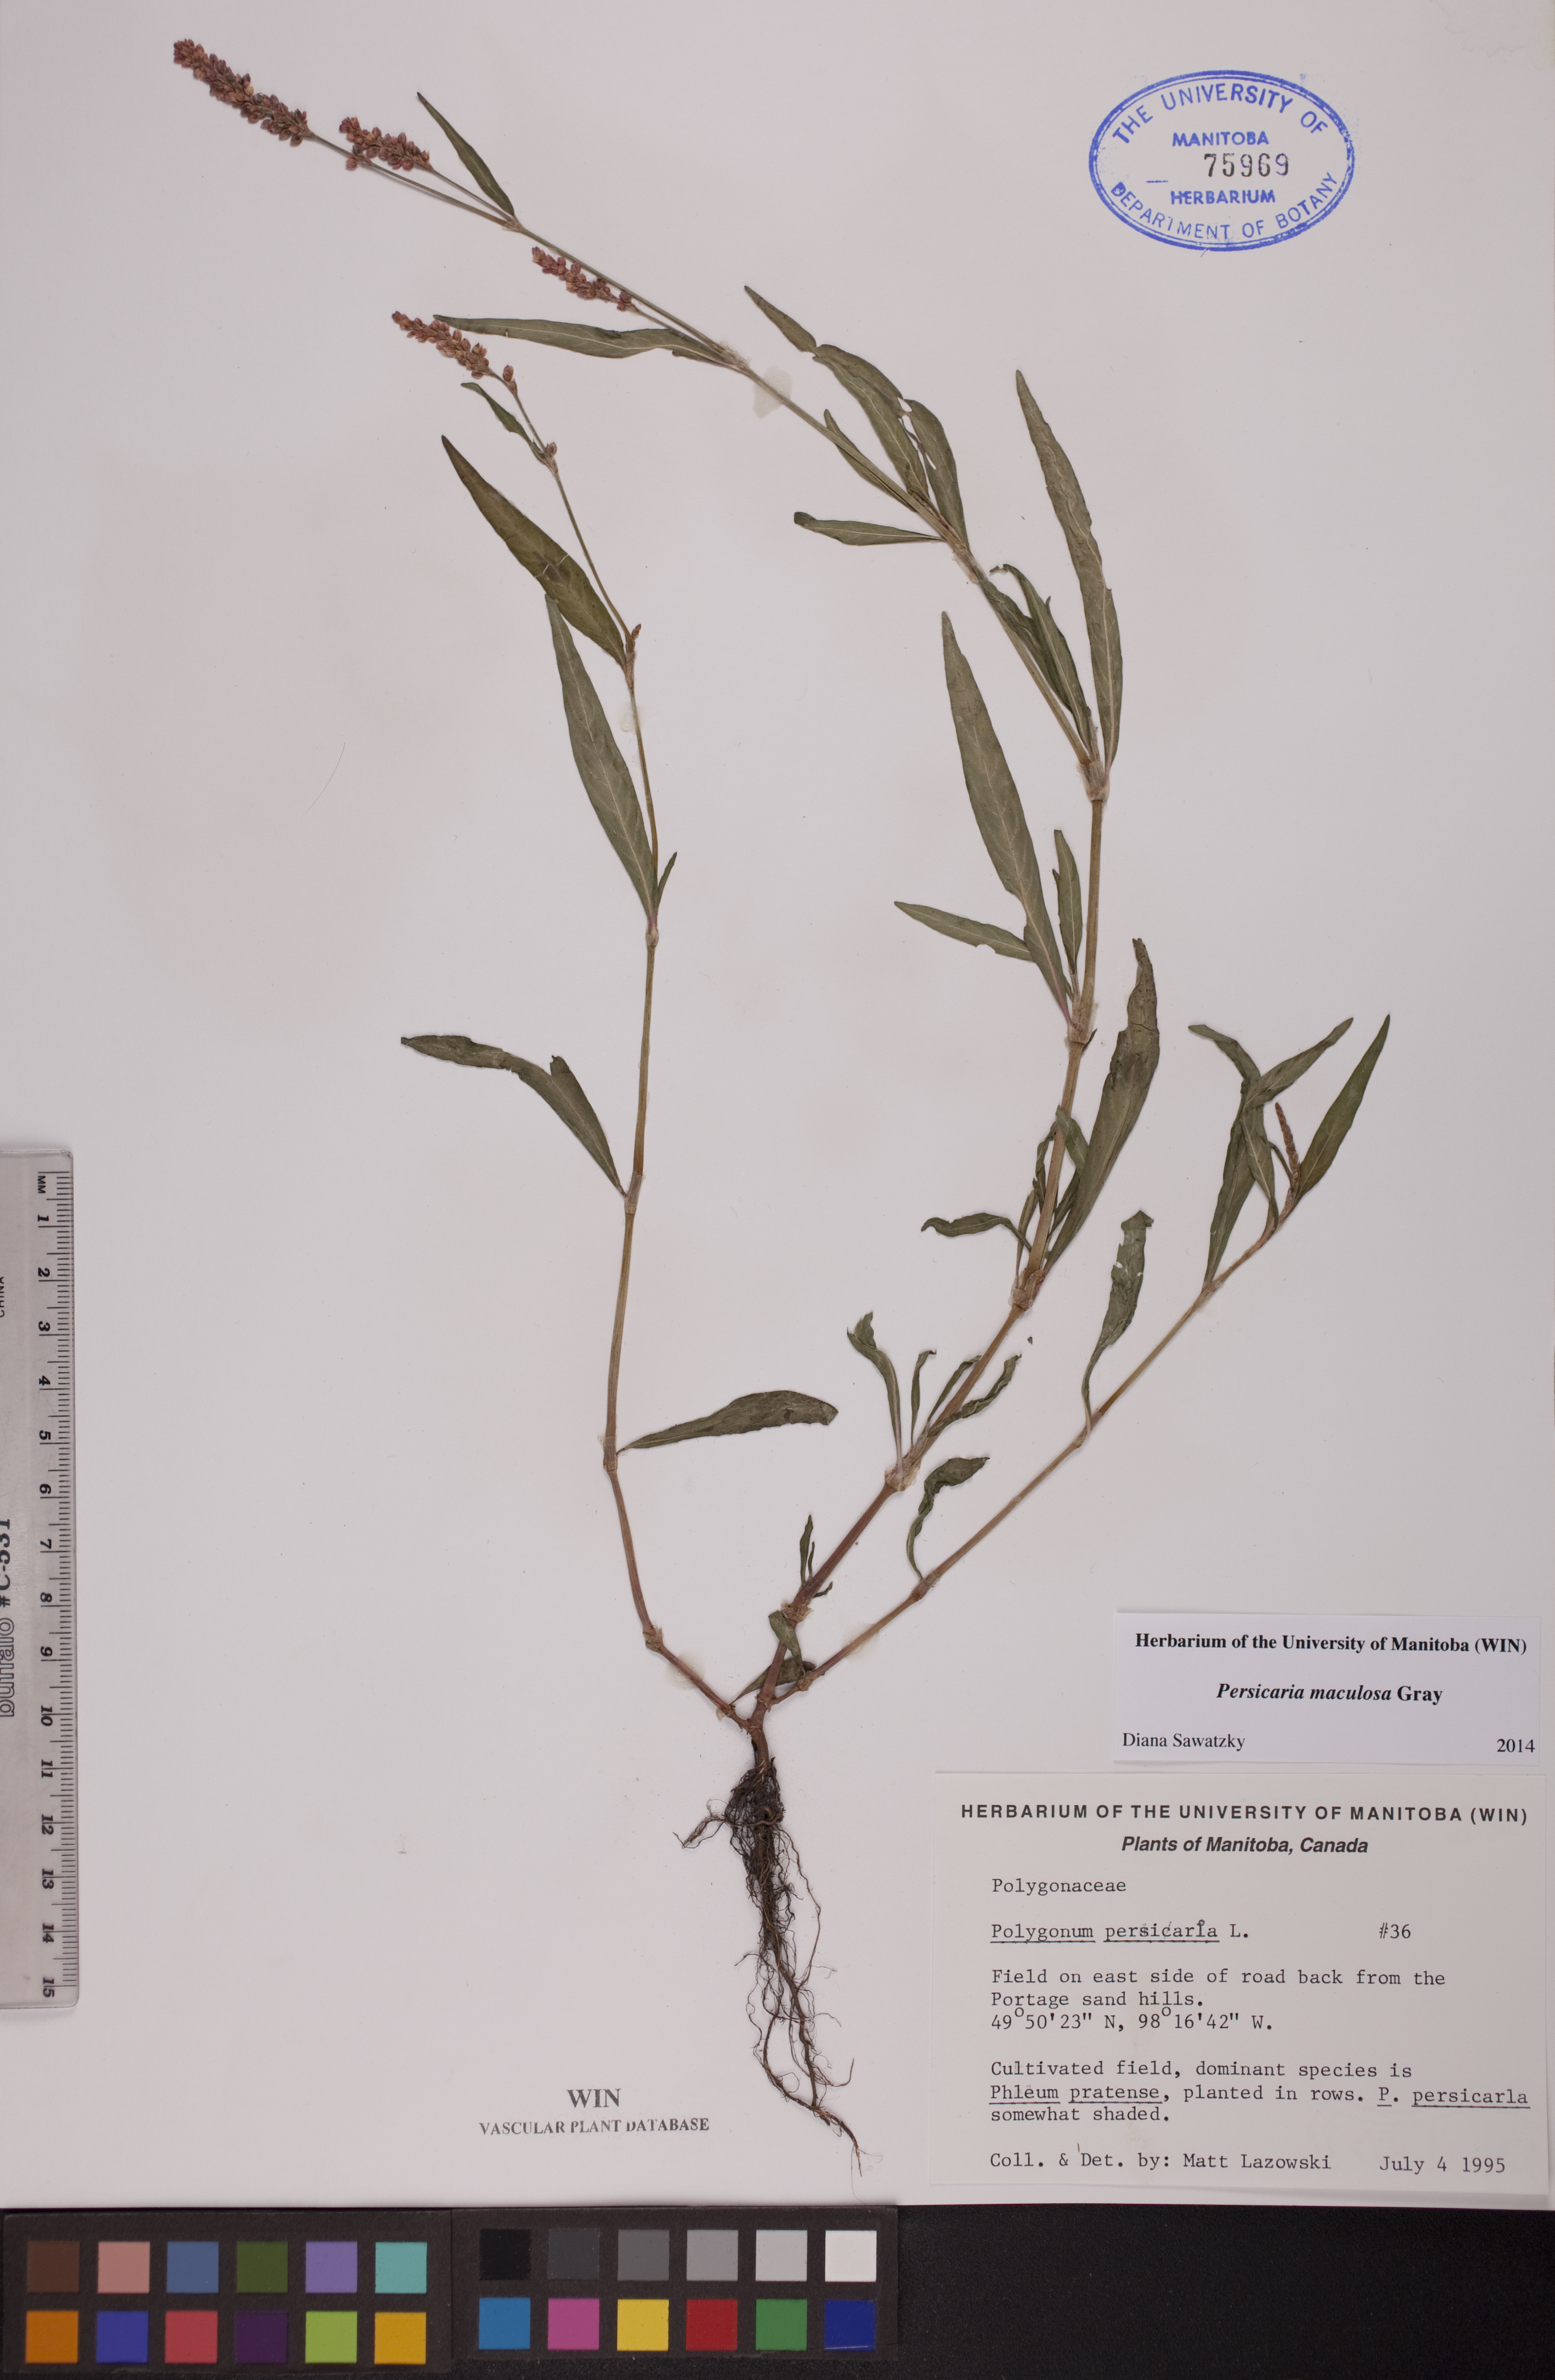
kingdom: Plantae
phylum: Tracheophyta
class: Magnoliopsida
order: Caryophyllales
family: Polygonaceae
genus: Persicaria
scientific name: Persicaria maculosa
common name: Redshank
